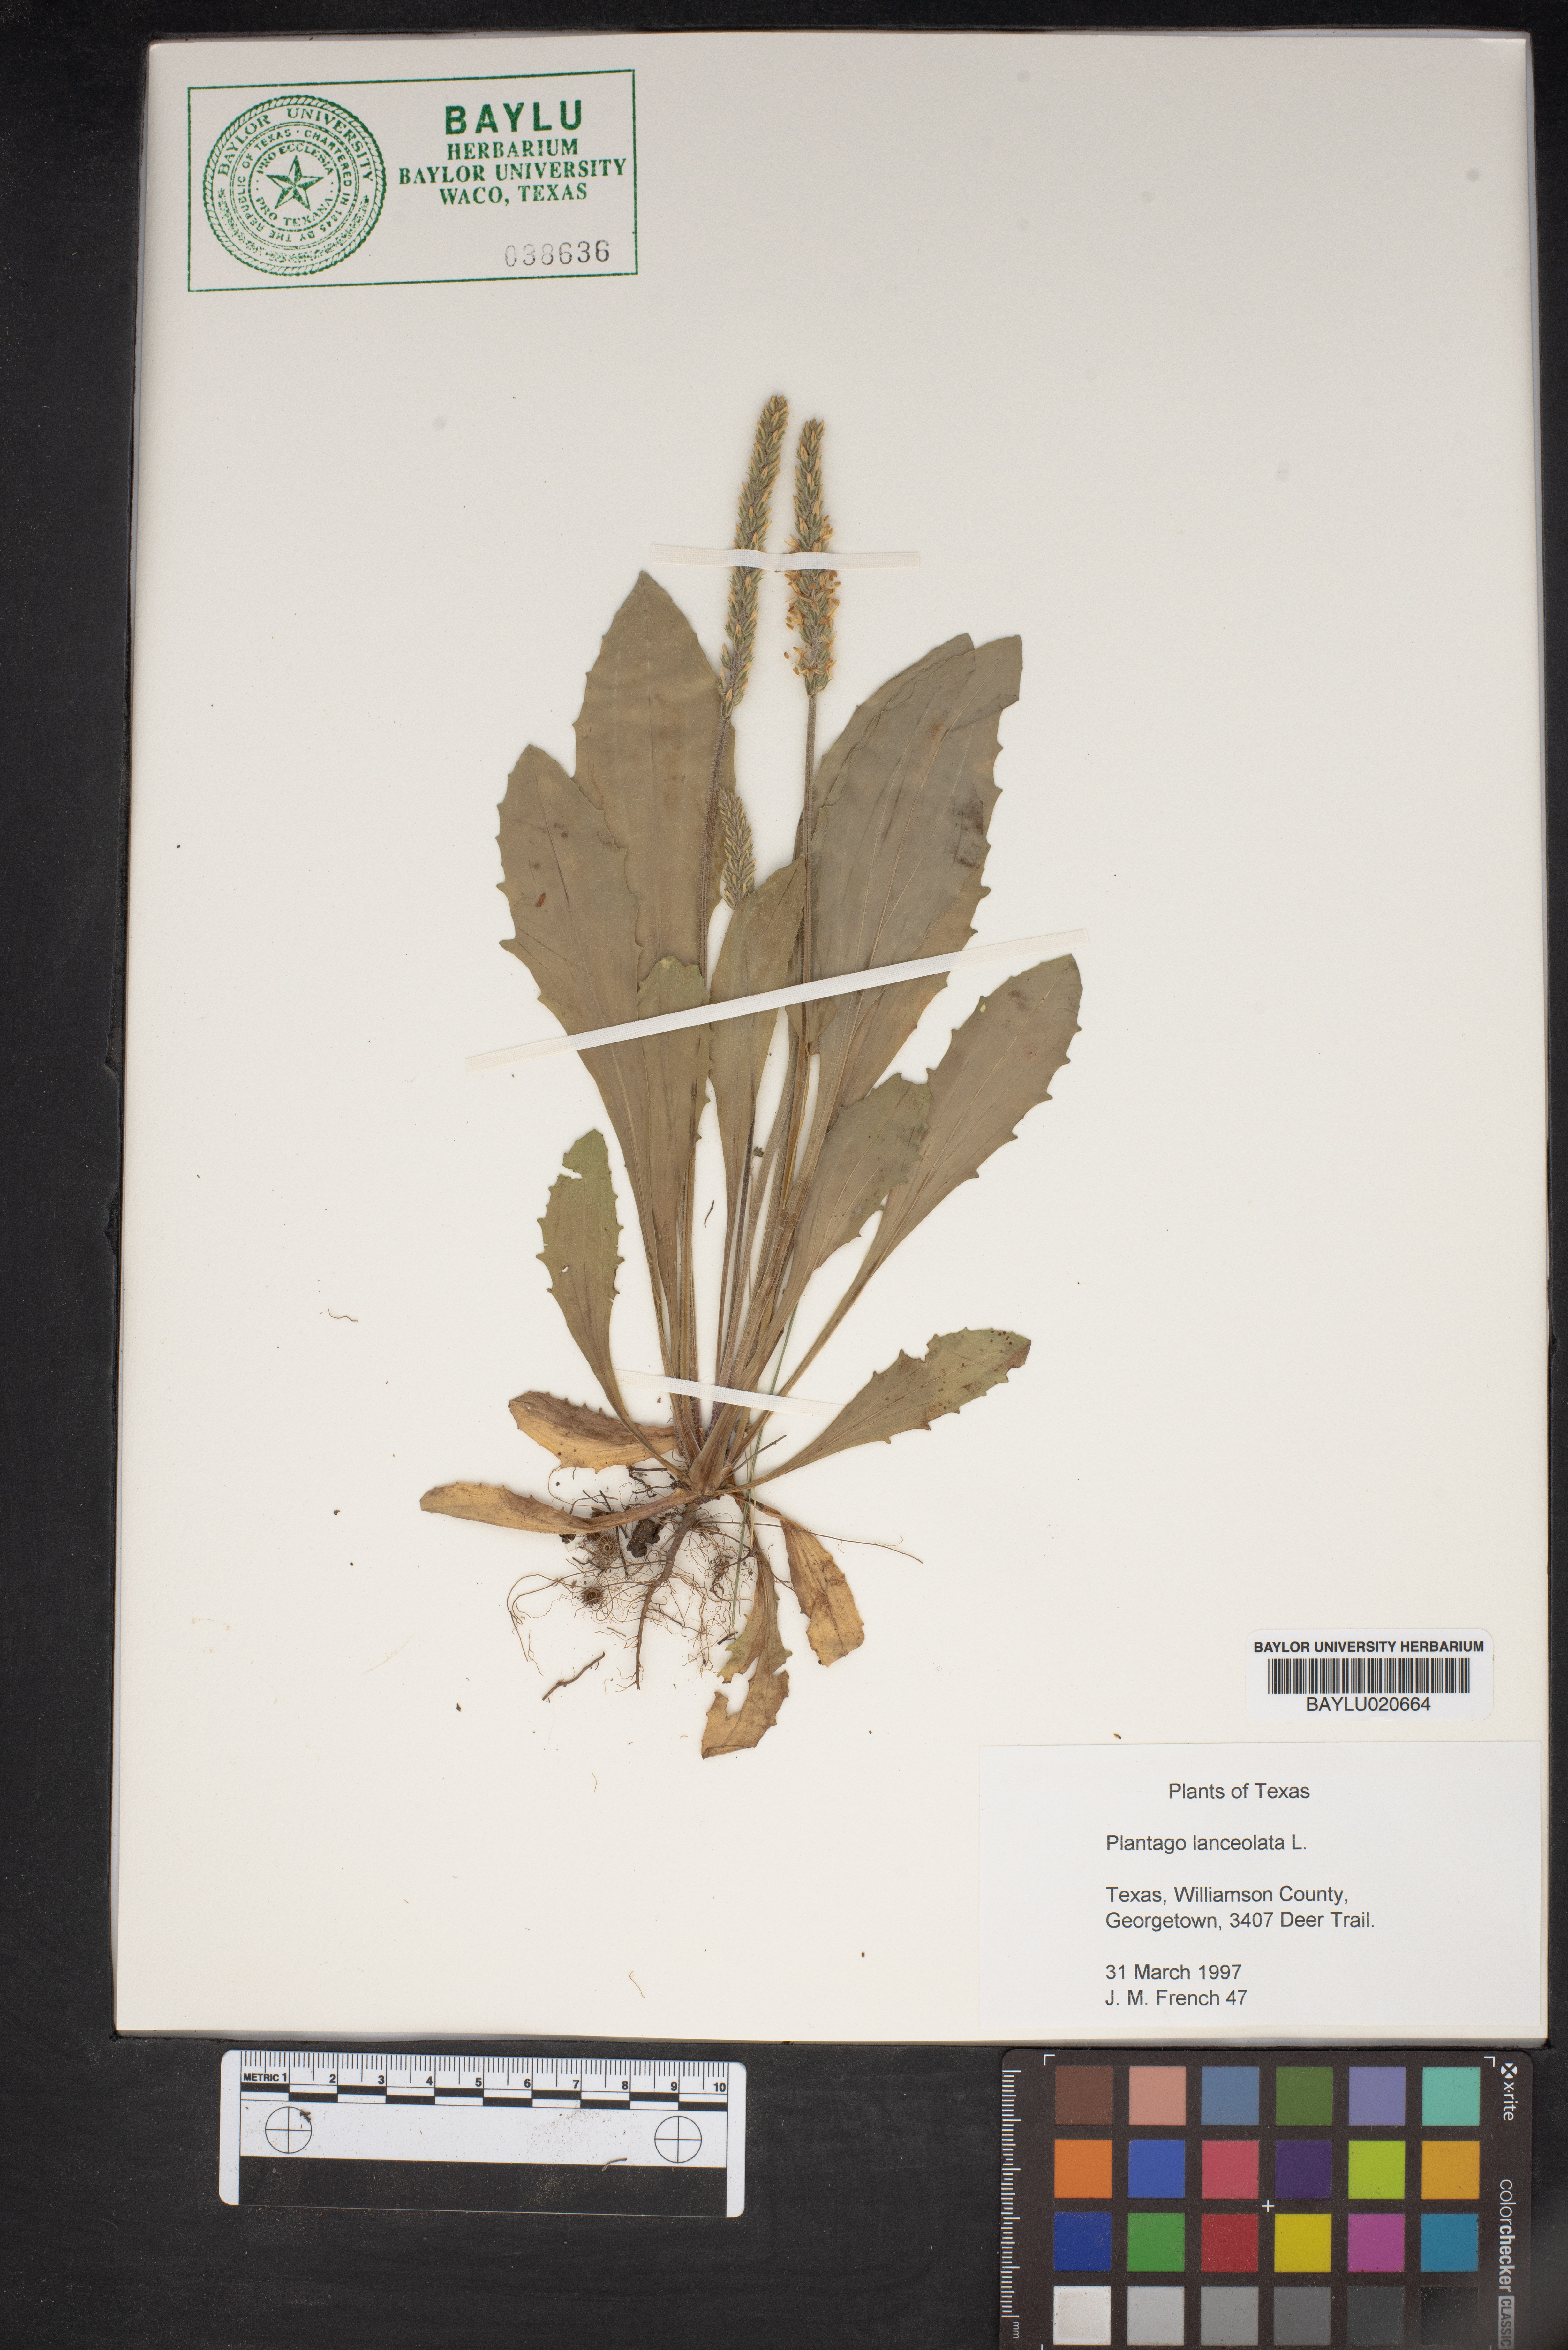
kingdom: Plantae
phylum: Tracheophyta
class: Magnoliopsida
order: Lamiales
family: Plantaginaceae
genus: Plantago
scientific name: Plantago lanceolata
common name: Ribwort plantain
